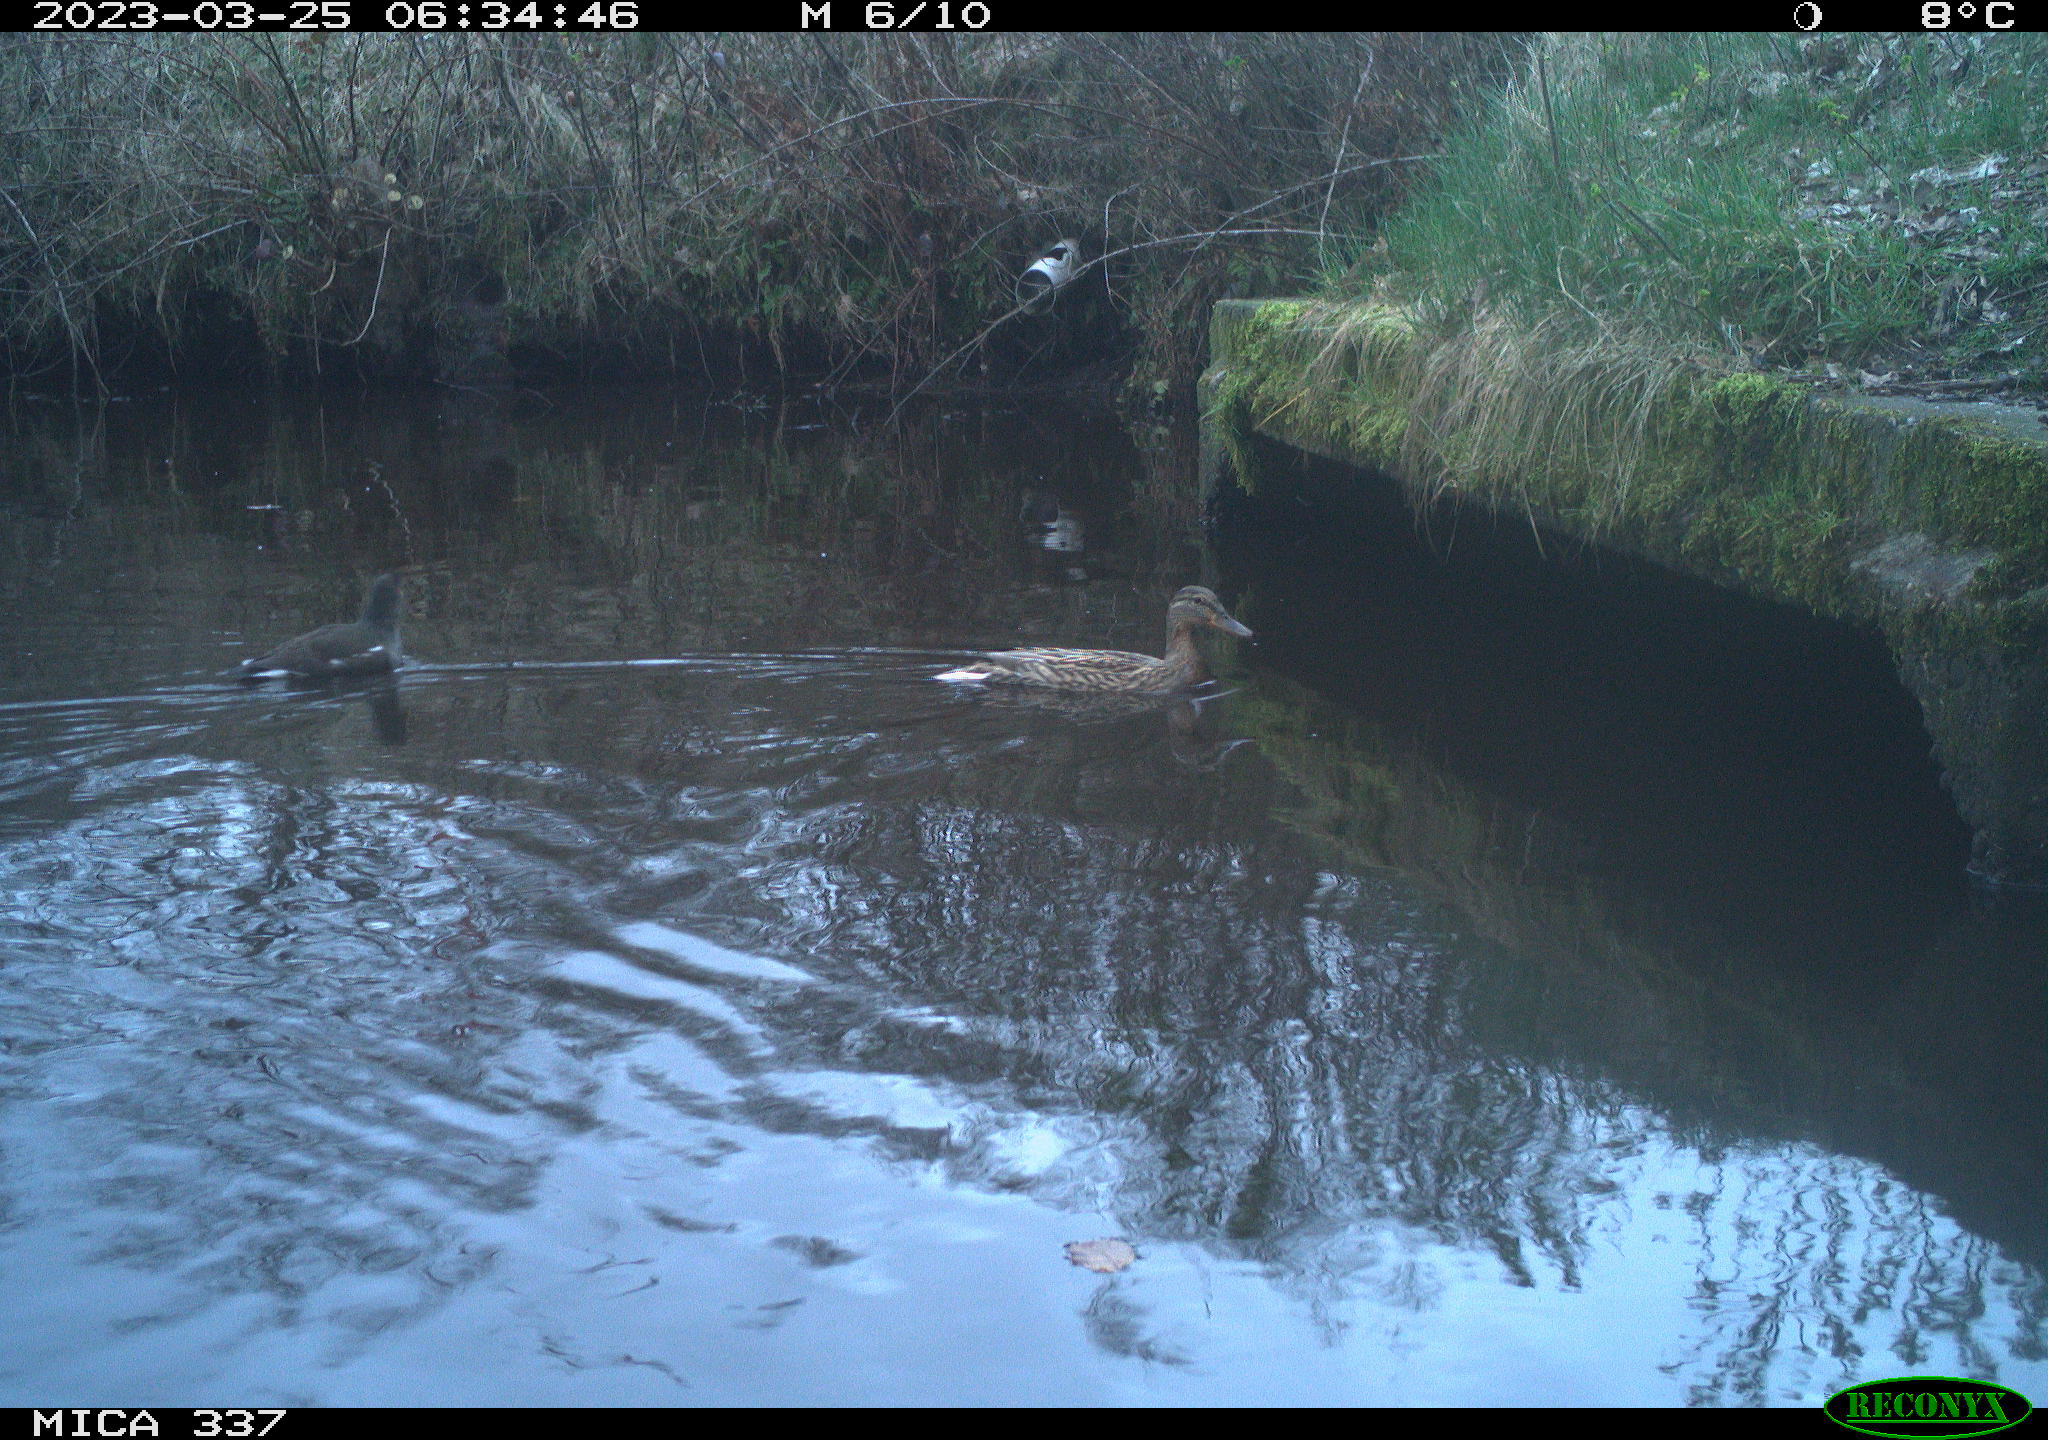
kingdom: Animalia
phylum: Chordata
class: Aves
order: Gruiformes
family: Rallidae
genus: Gallinula
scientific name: Gallinula chloropus
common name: Common moorhen
